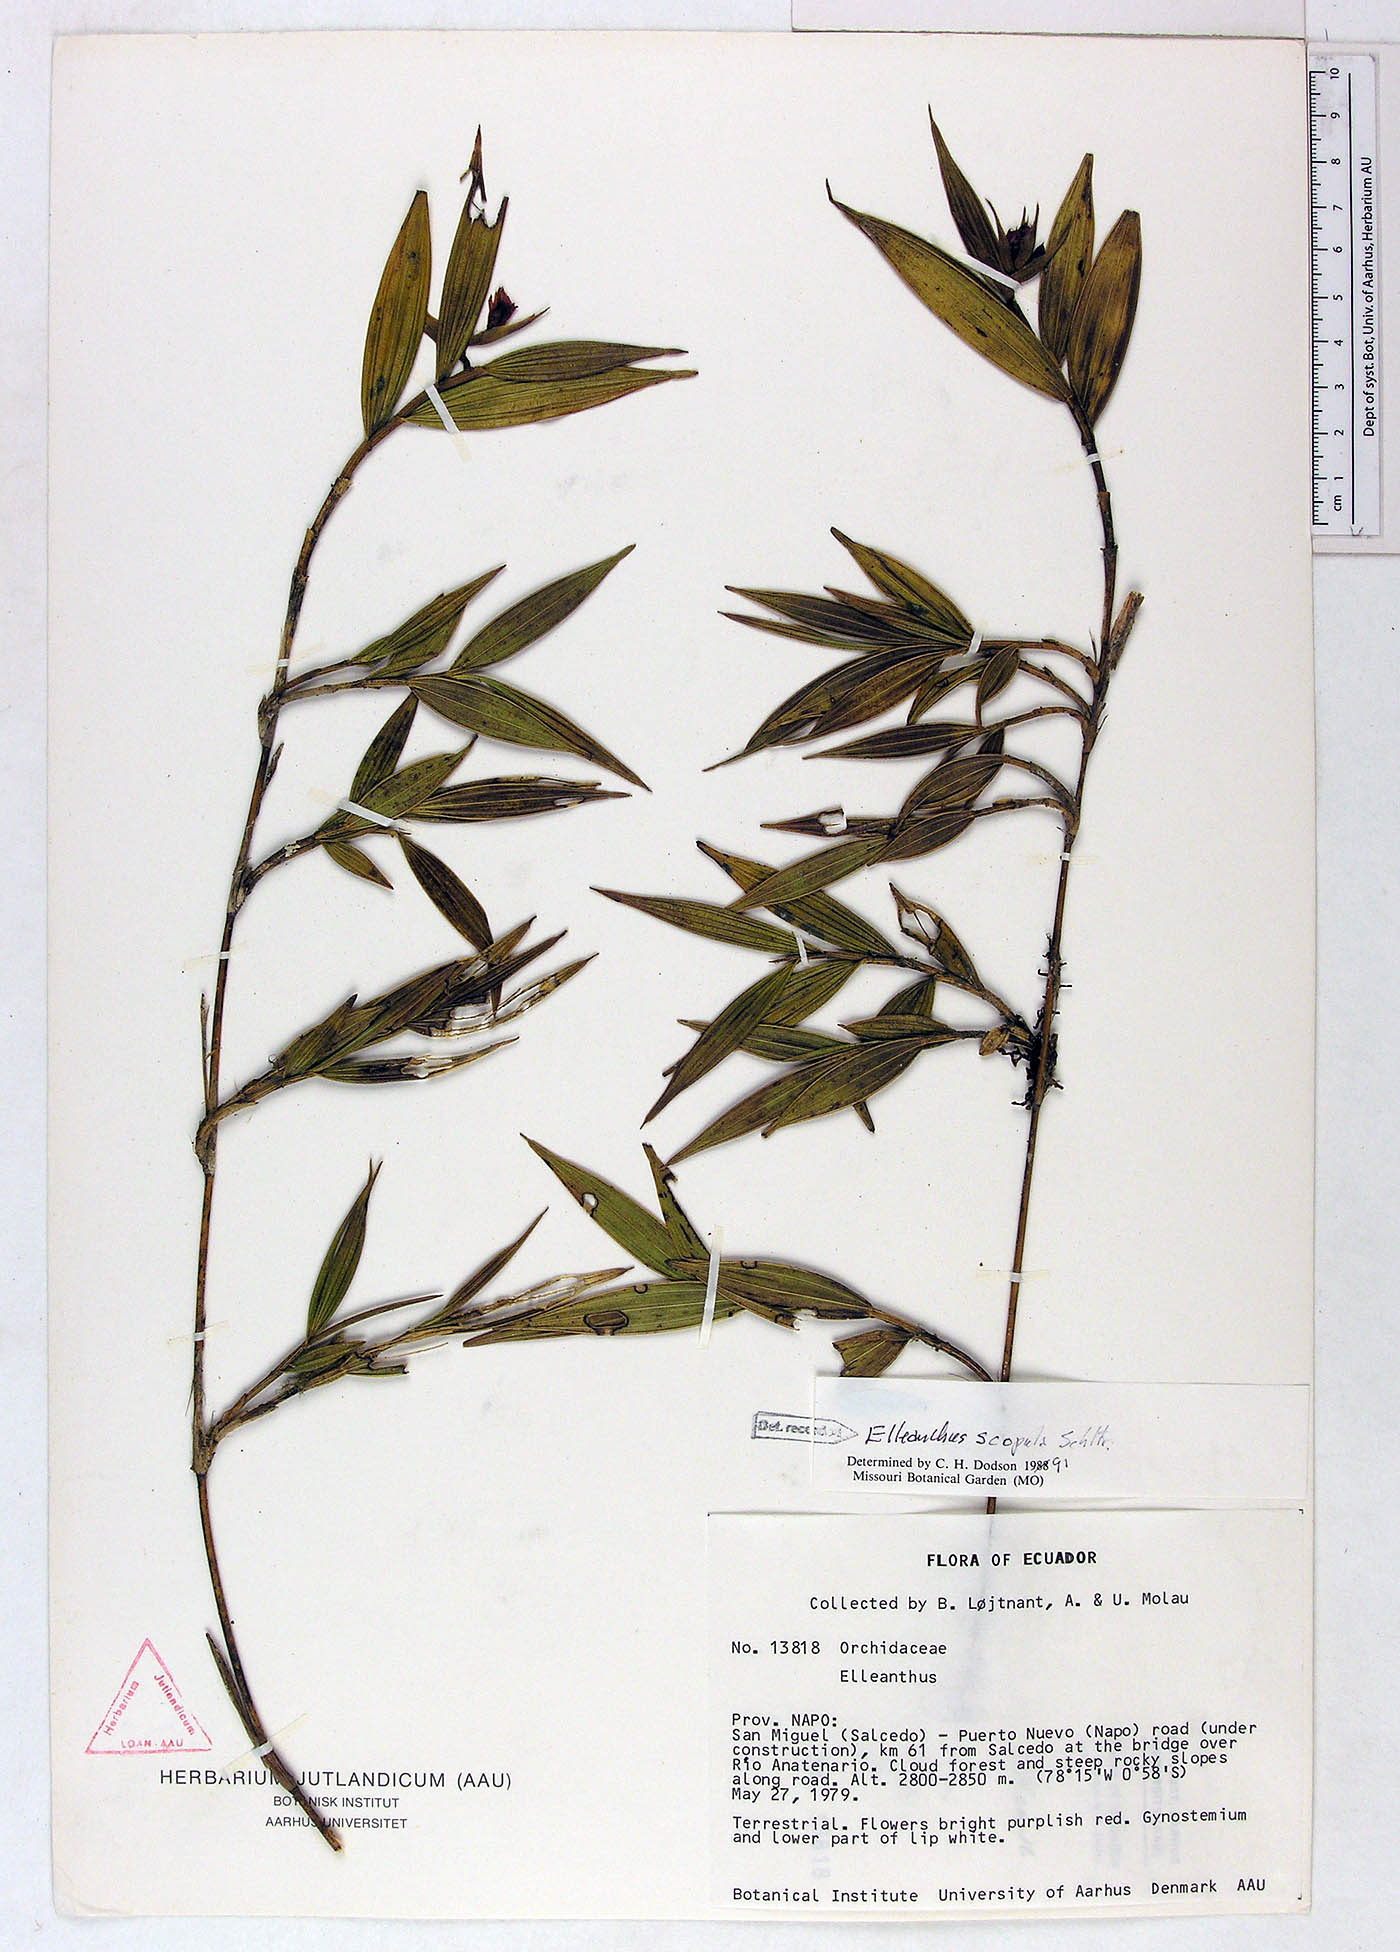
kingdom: Plantae
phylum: Tracheophyta
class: Liliopsida
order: Asparagales
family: Orchidaceae
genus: Elleanthus
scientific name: Elleanthus scopula
